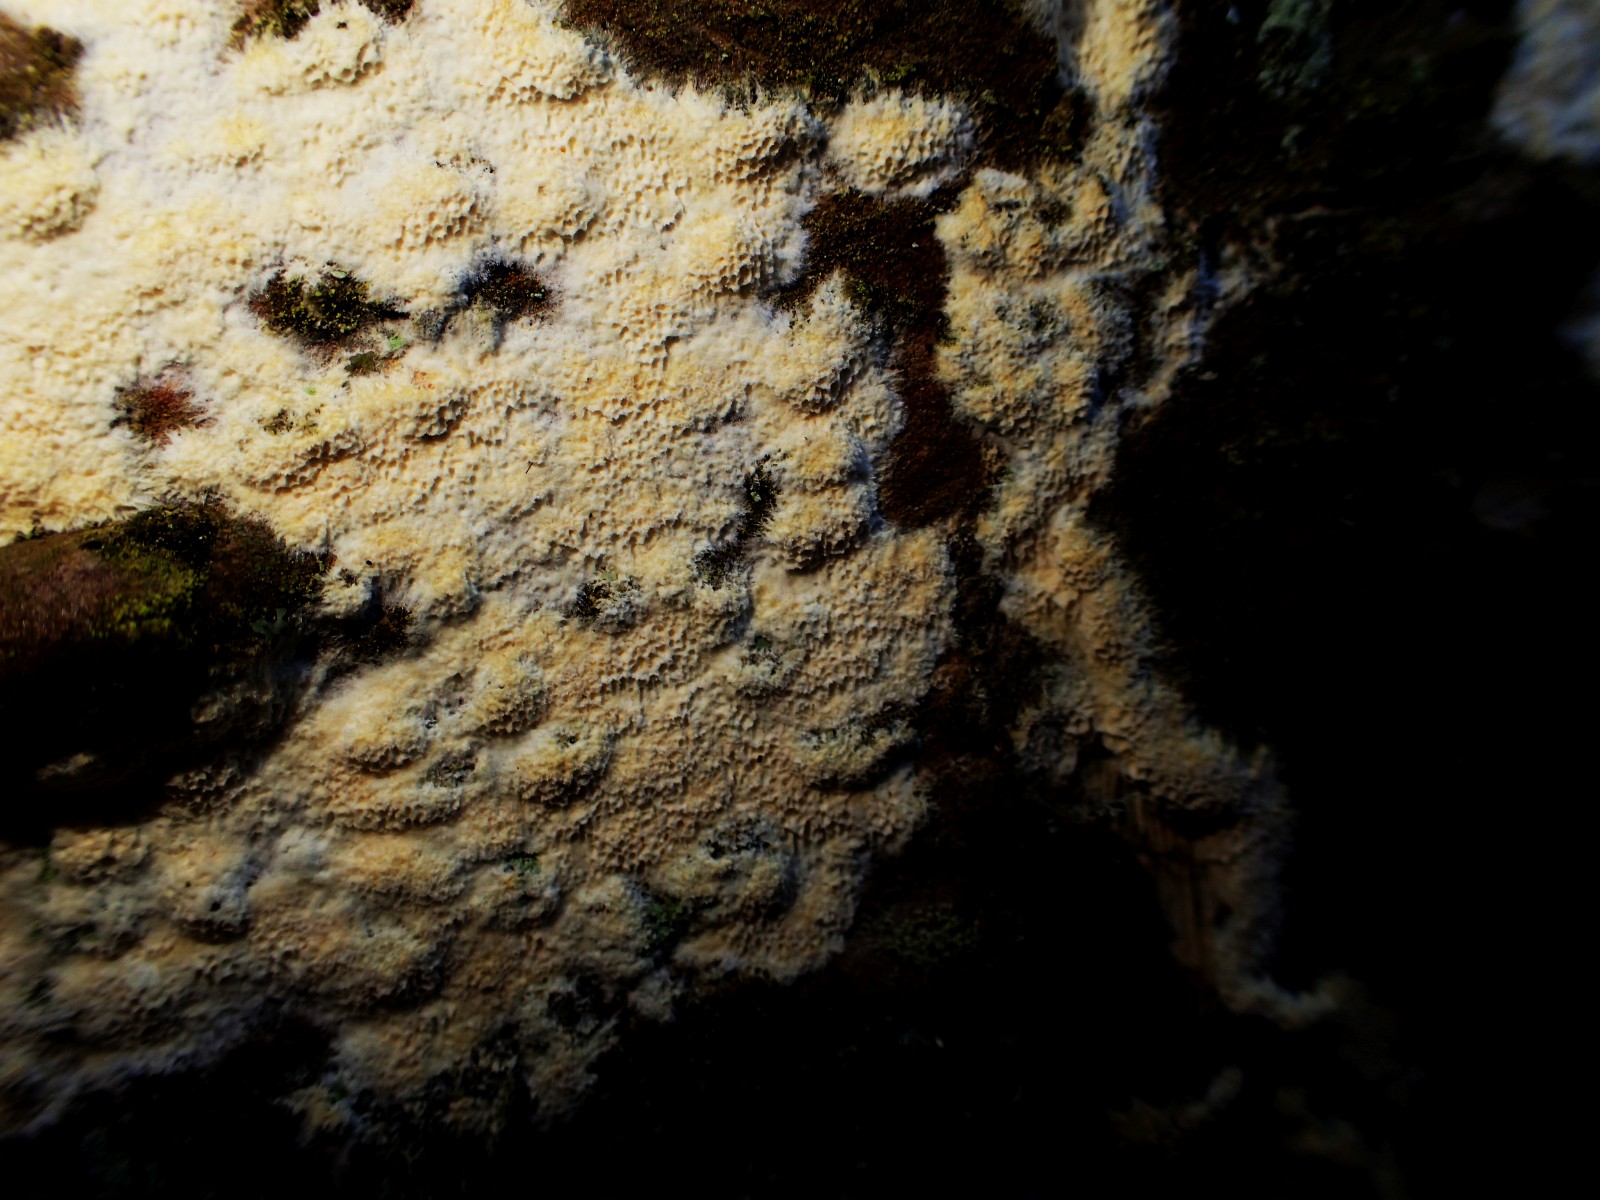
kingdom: Fungi
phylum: Basidiomycota
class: Agaricomycetes
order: Polyporales
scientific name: Polyporales
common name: poresvampordenen
